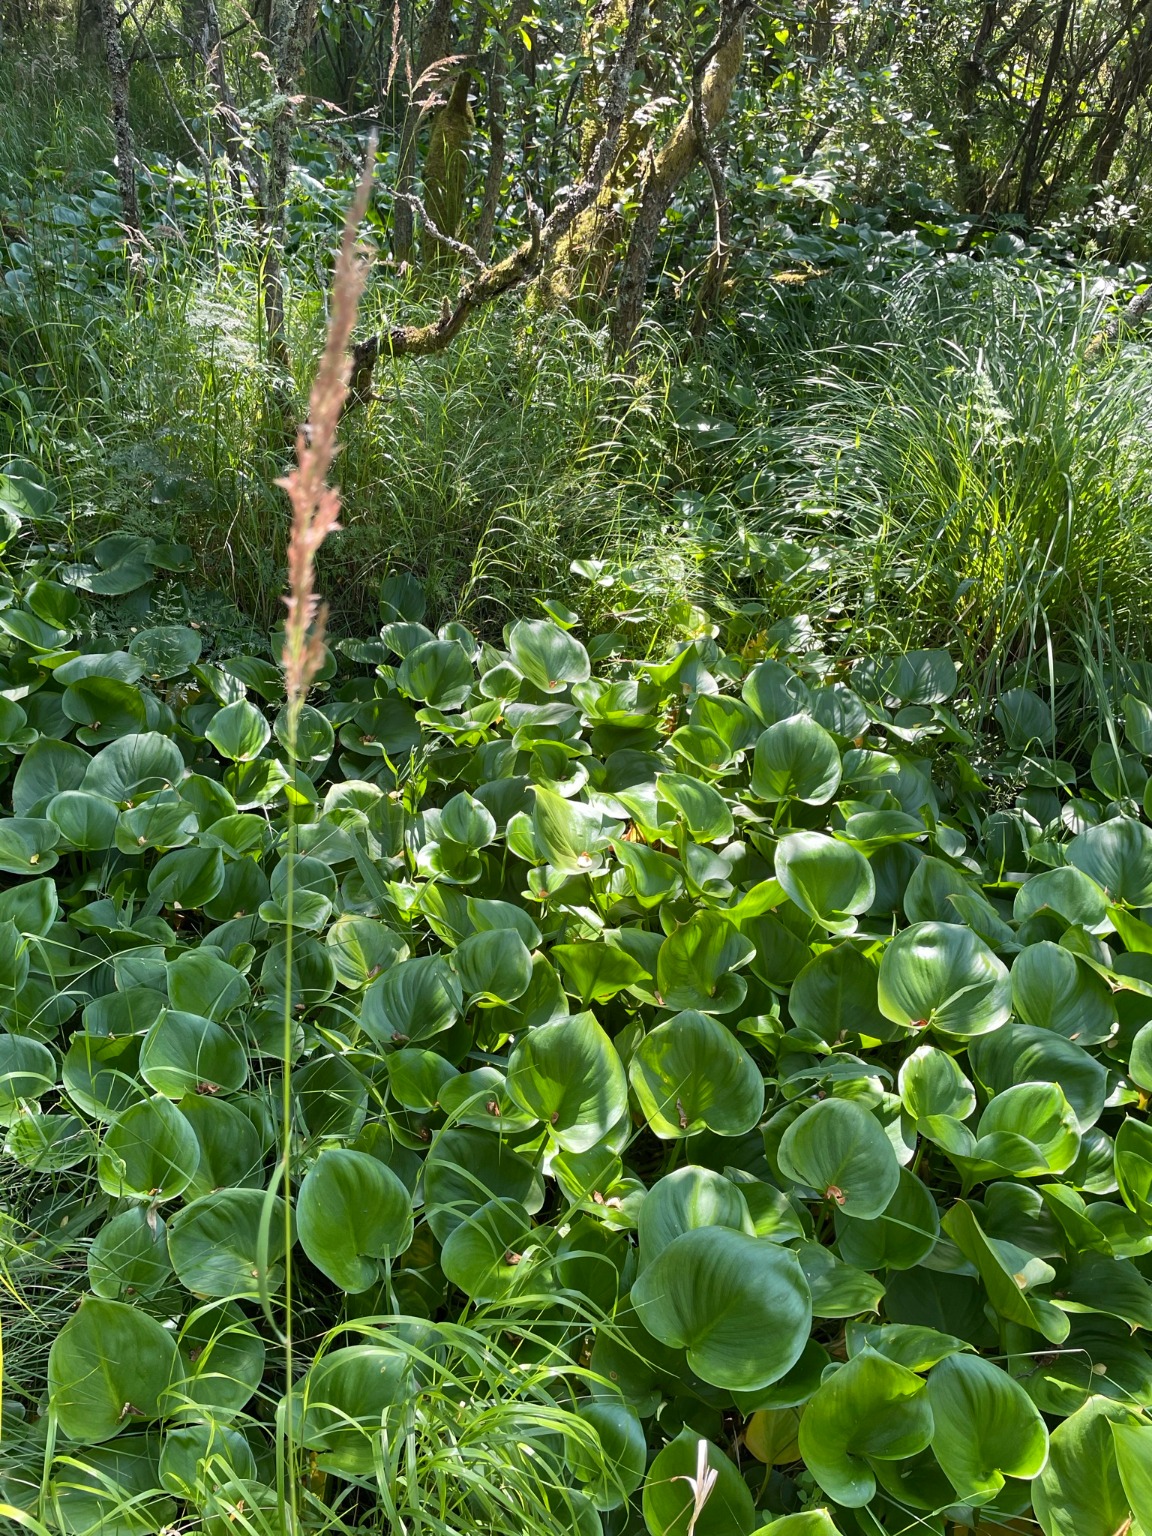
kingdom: Plantae
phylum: Tracheophyta
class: Liliopsida
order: Alismatales
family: Araceae
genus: Calla
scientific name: Calla palustris
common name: Kærmysse
